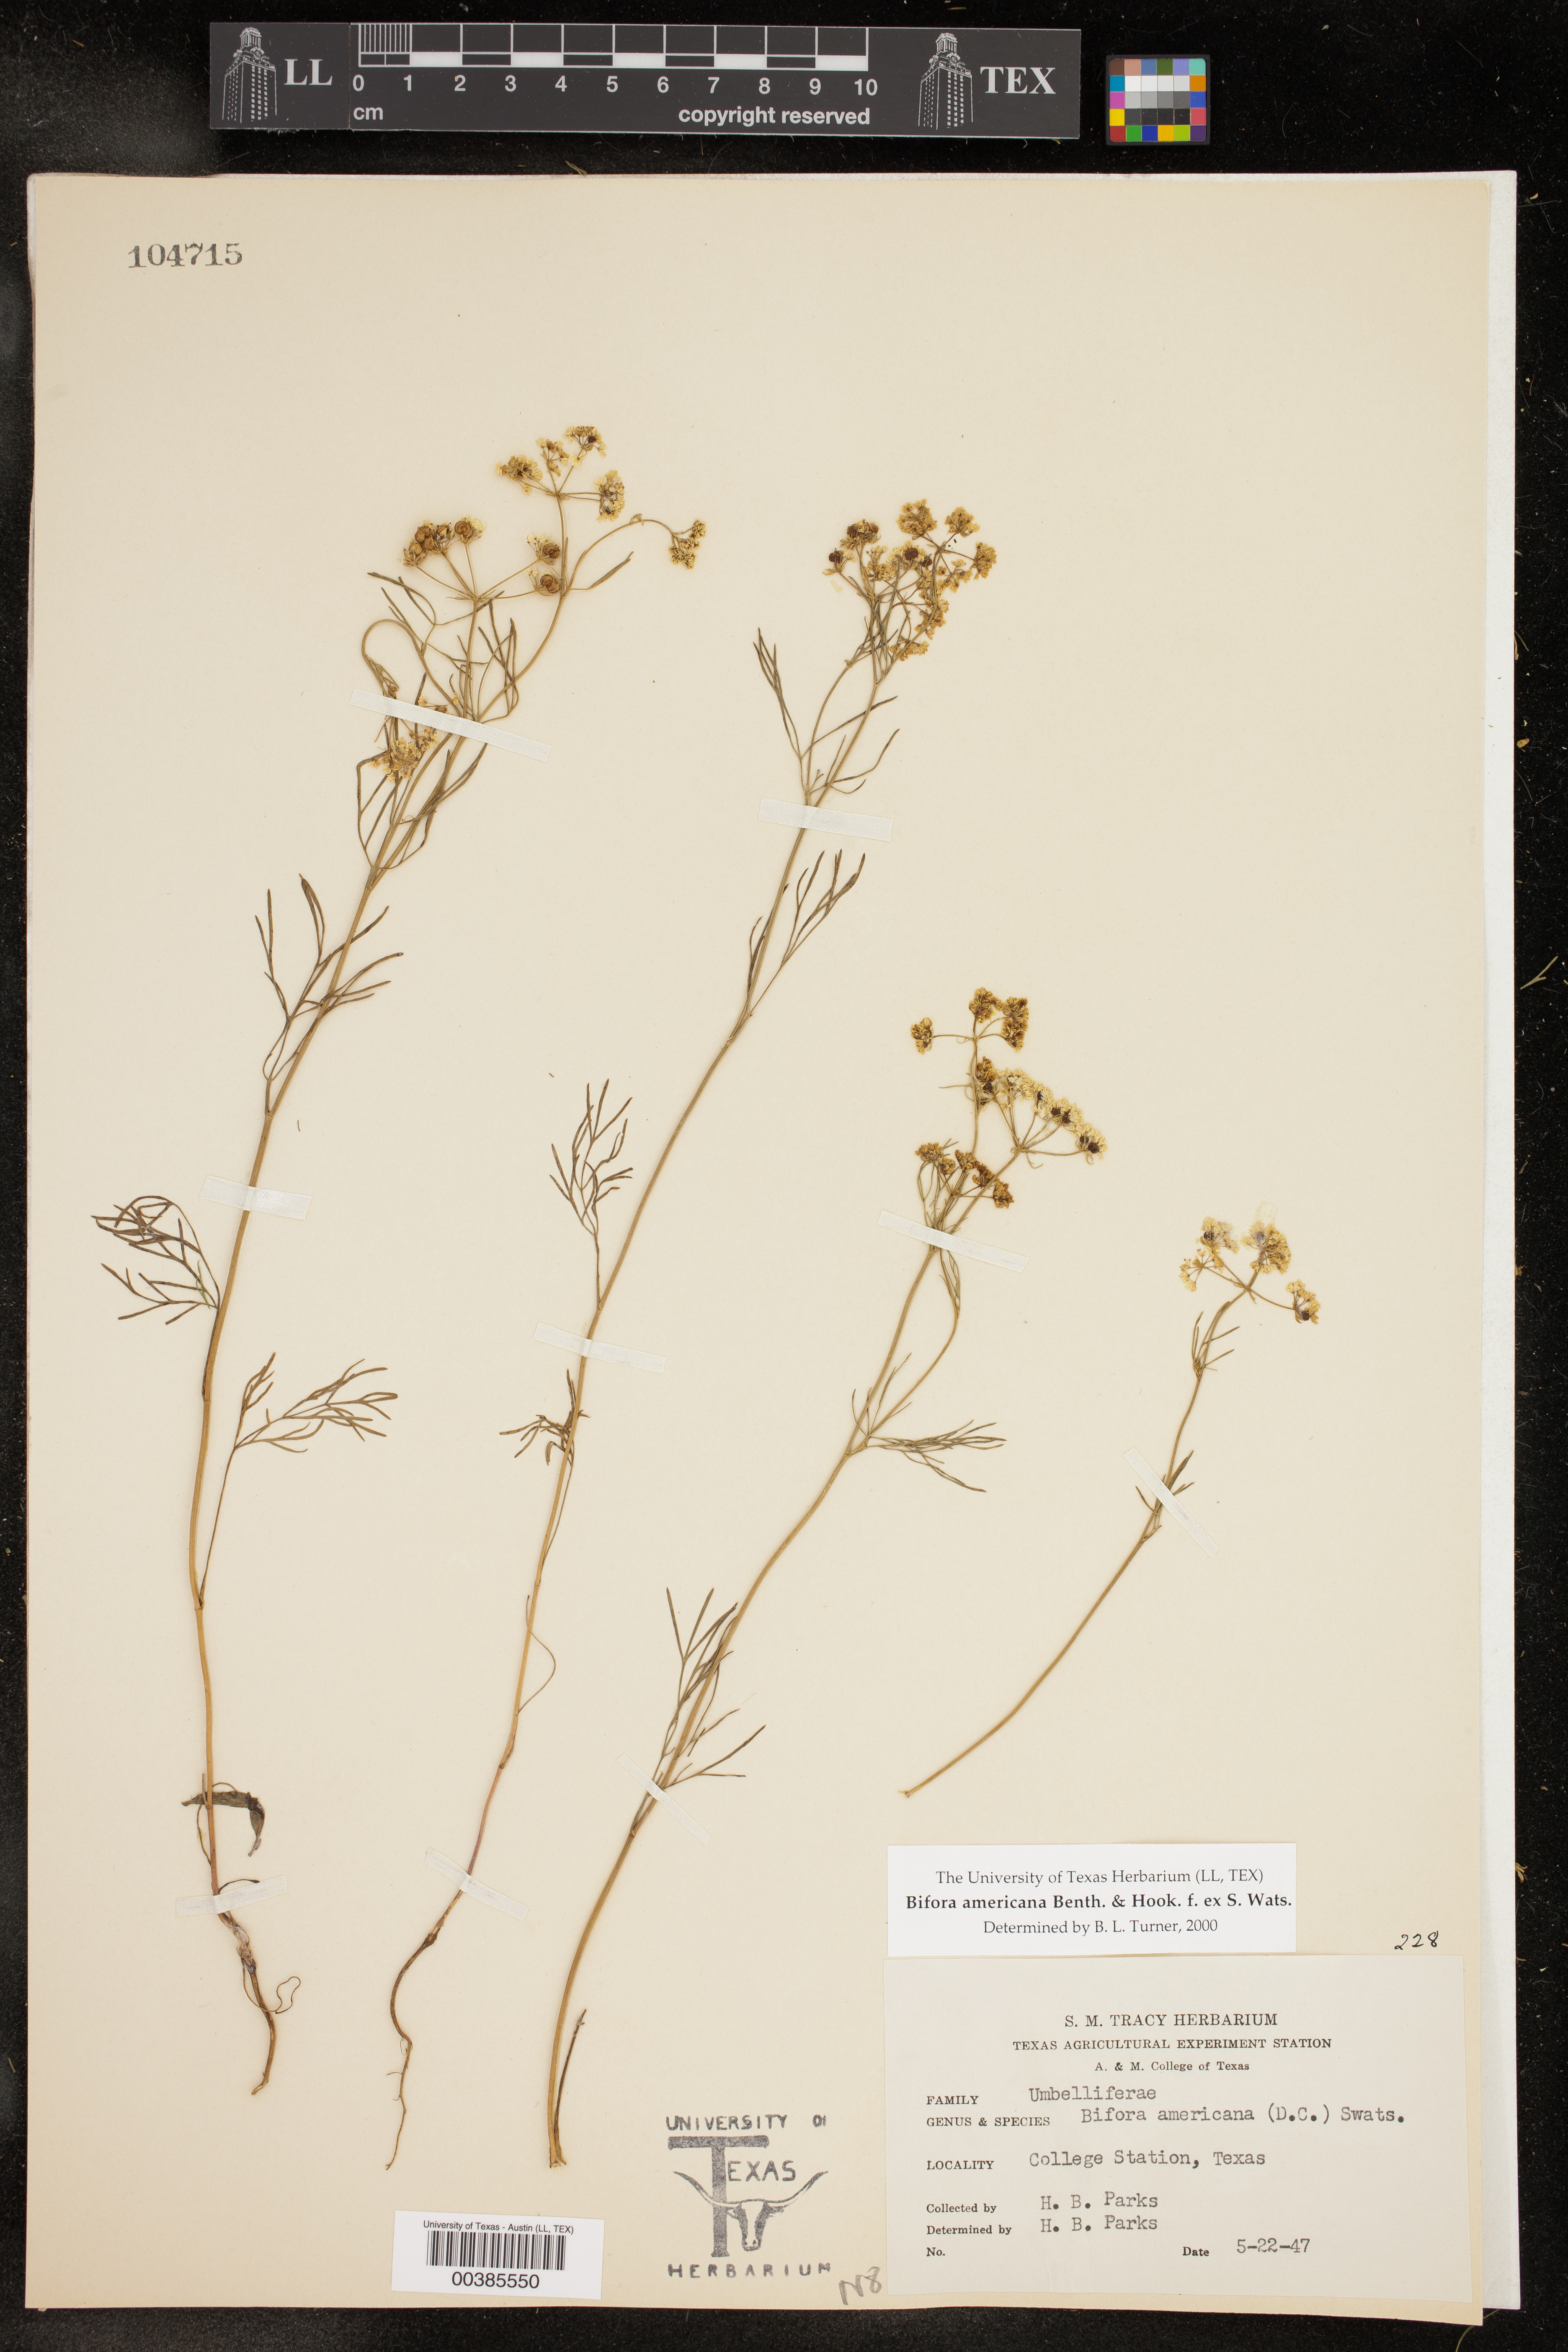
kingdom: Plantae
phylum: Tracheophyta
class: Magnoliopsida
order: Apiales
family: Apiaceae
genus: Atrema
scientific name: Atrema americanum
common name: Prairie-bishop
